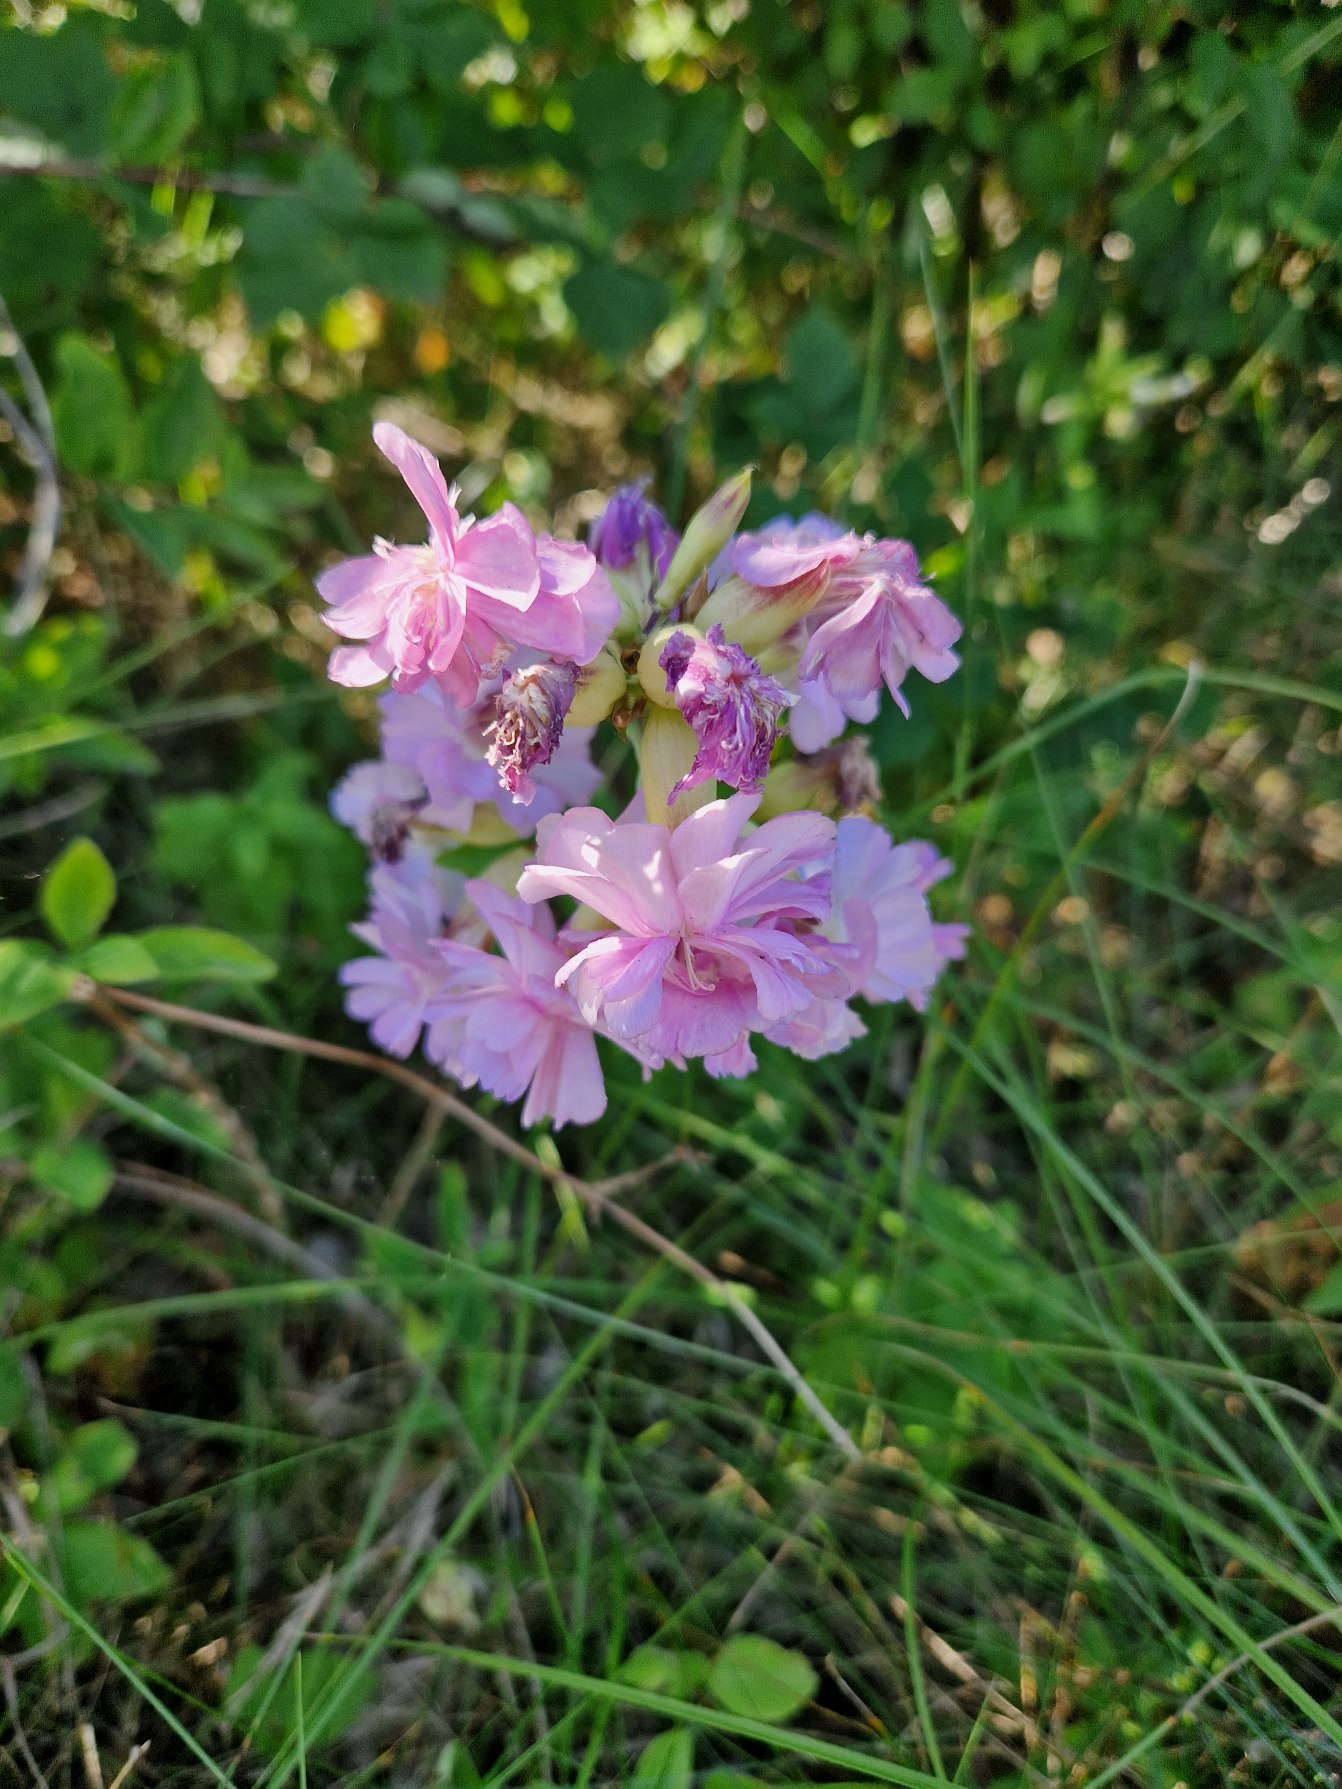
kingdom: Plantae
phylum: Tracheophyta
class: Magnoliopsida
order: Caryophyllales
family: Caryophyllaceae
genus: Saponaria
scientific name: Saponaria officinalis
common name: Sæbeurt
